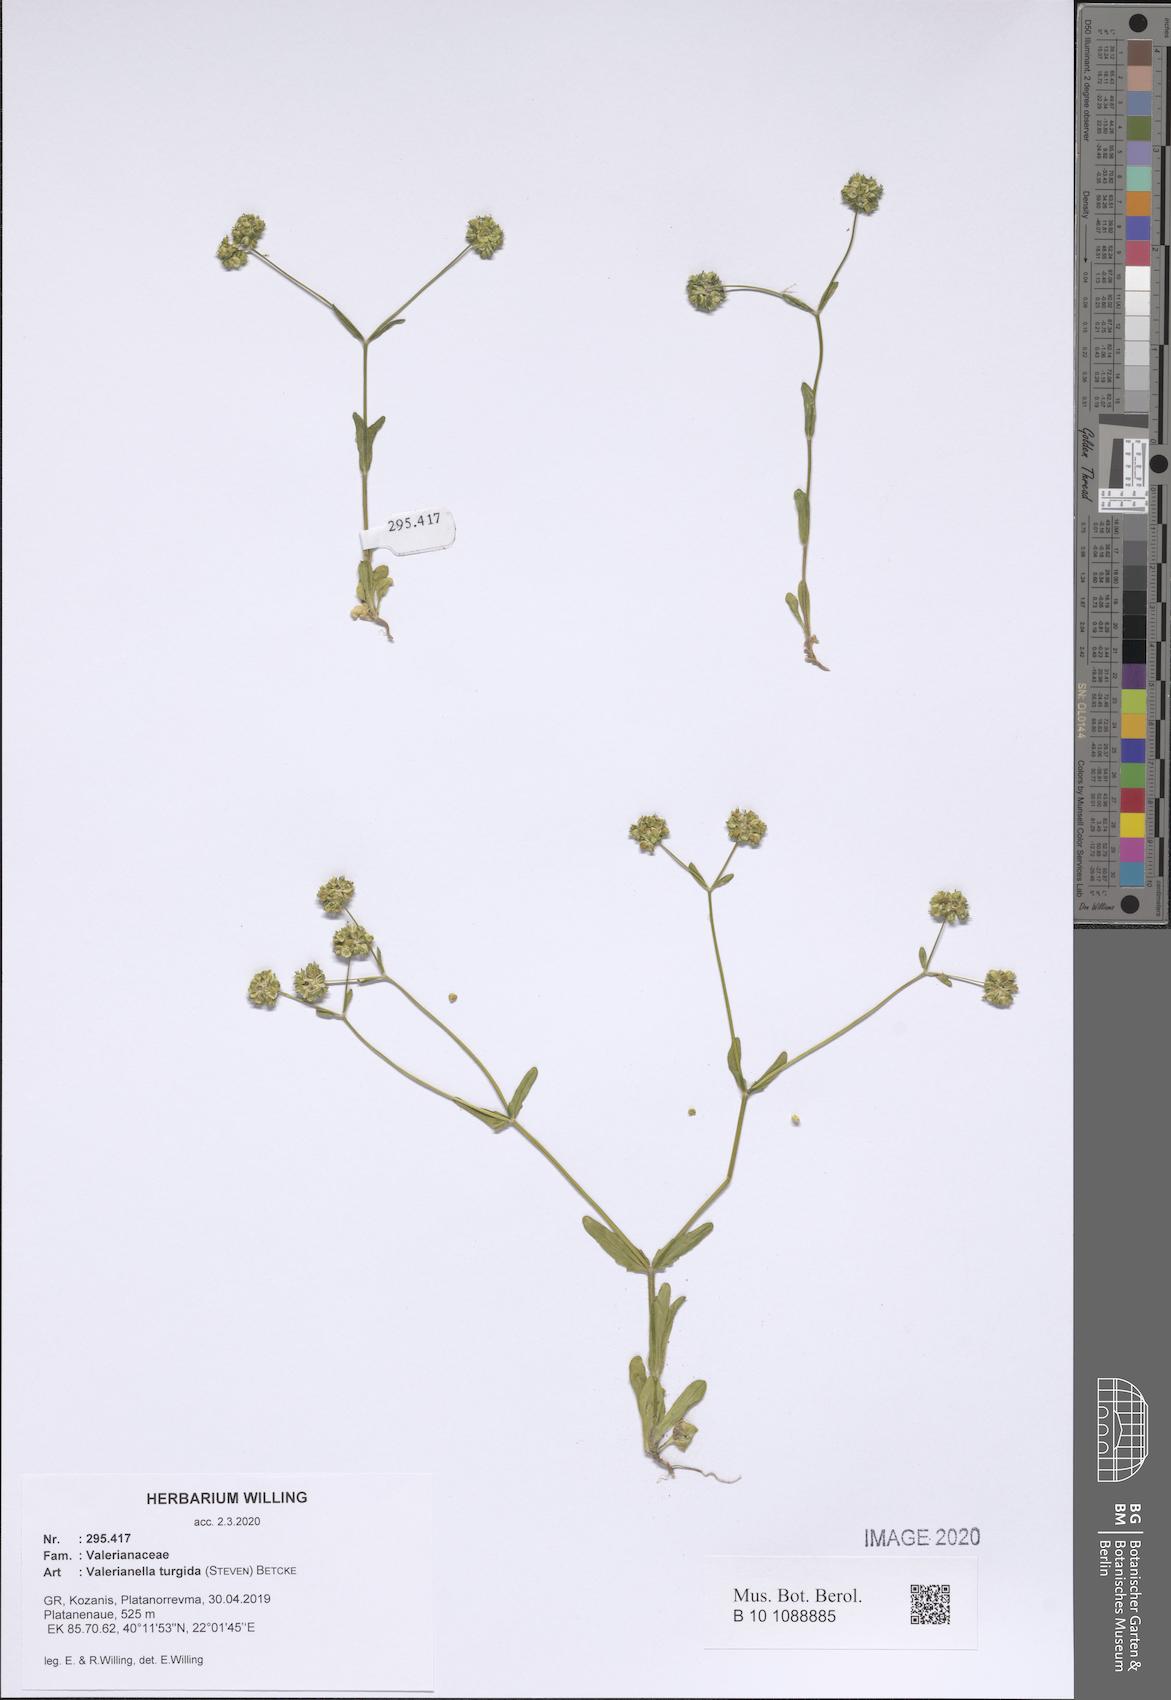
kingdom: Plantae
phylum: Tracheophyta
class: Magnoliopsida
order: Dipsacales
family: Caprifoliaceae
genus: Valerianella
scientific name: Valerianella turgida
